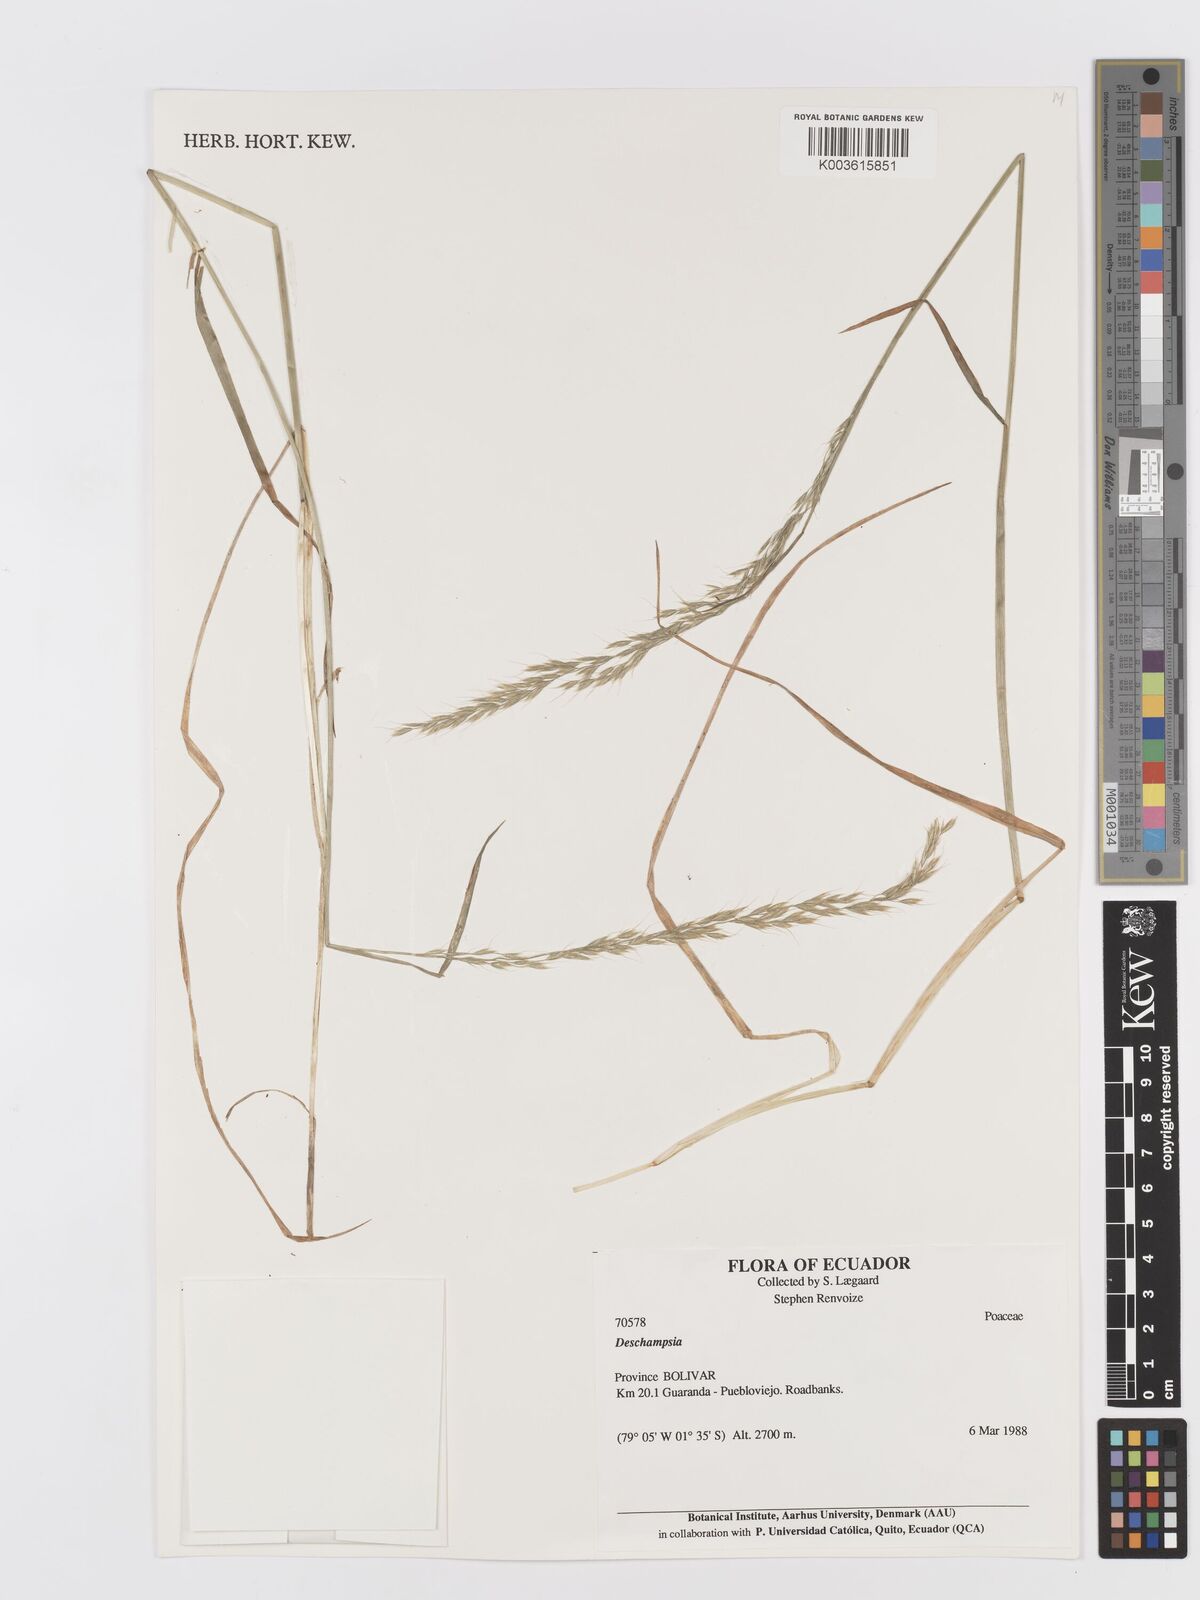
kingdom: Plantae
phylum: Tracheophyta
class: Liliopsida
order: Poales
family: Poaceae
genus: Peyritschia
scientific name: Peyritschia irazuensis
